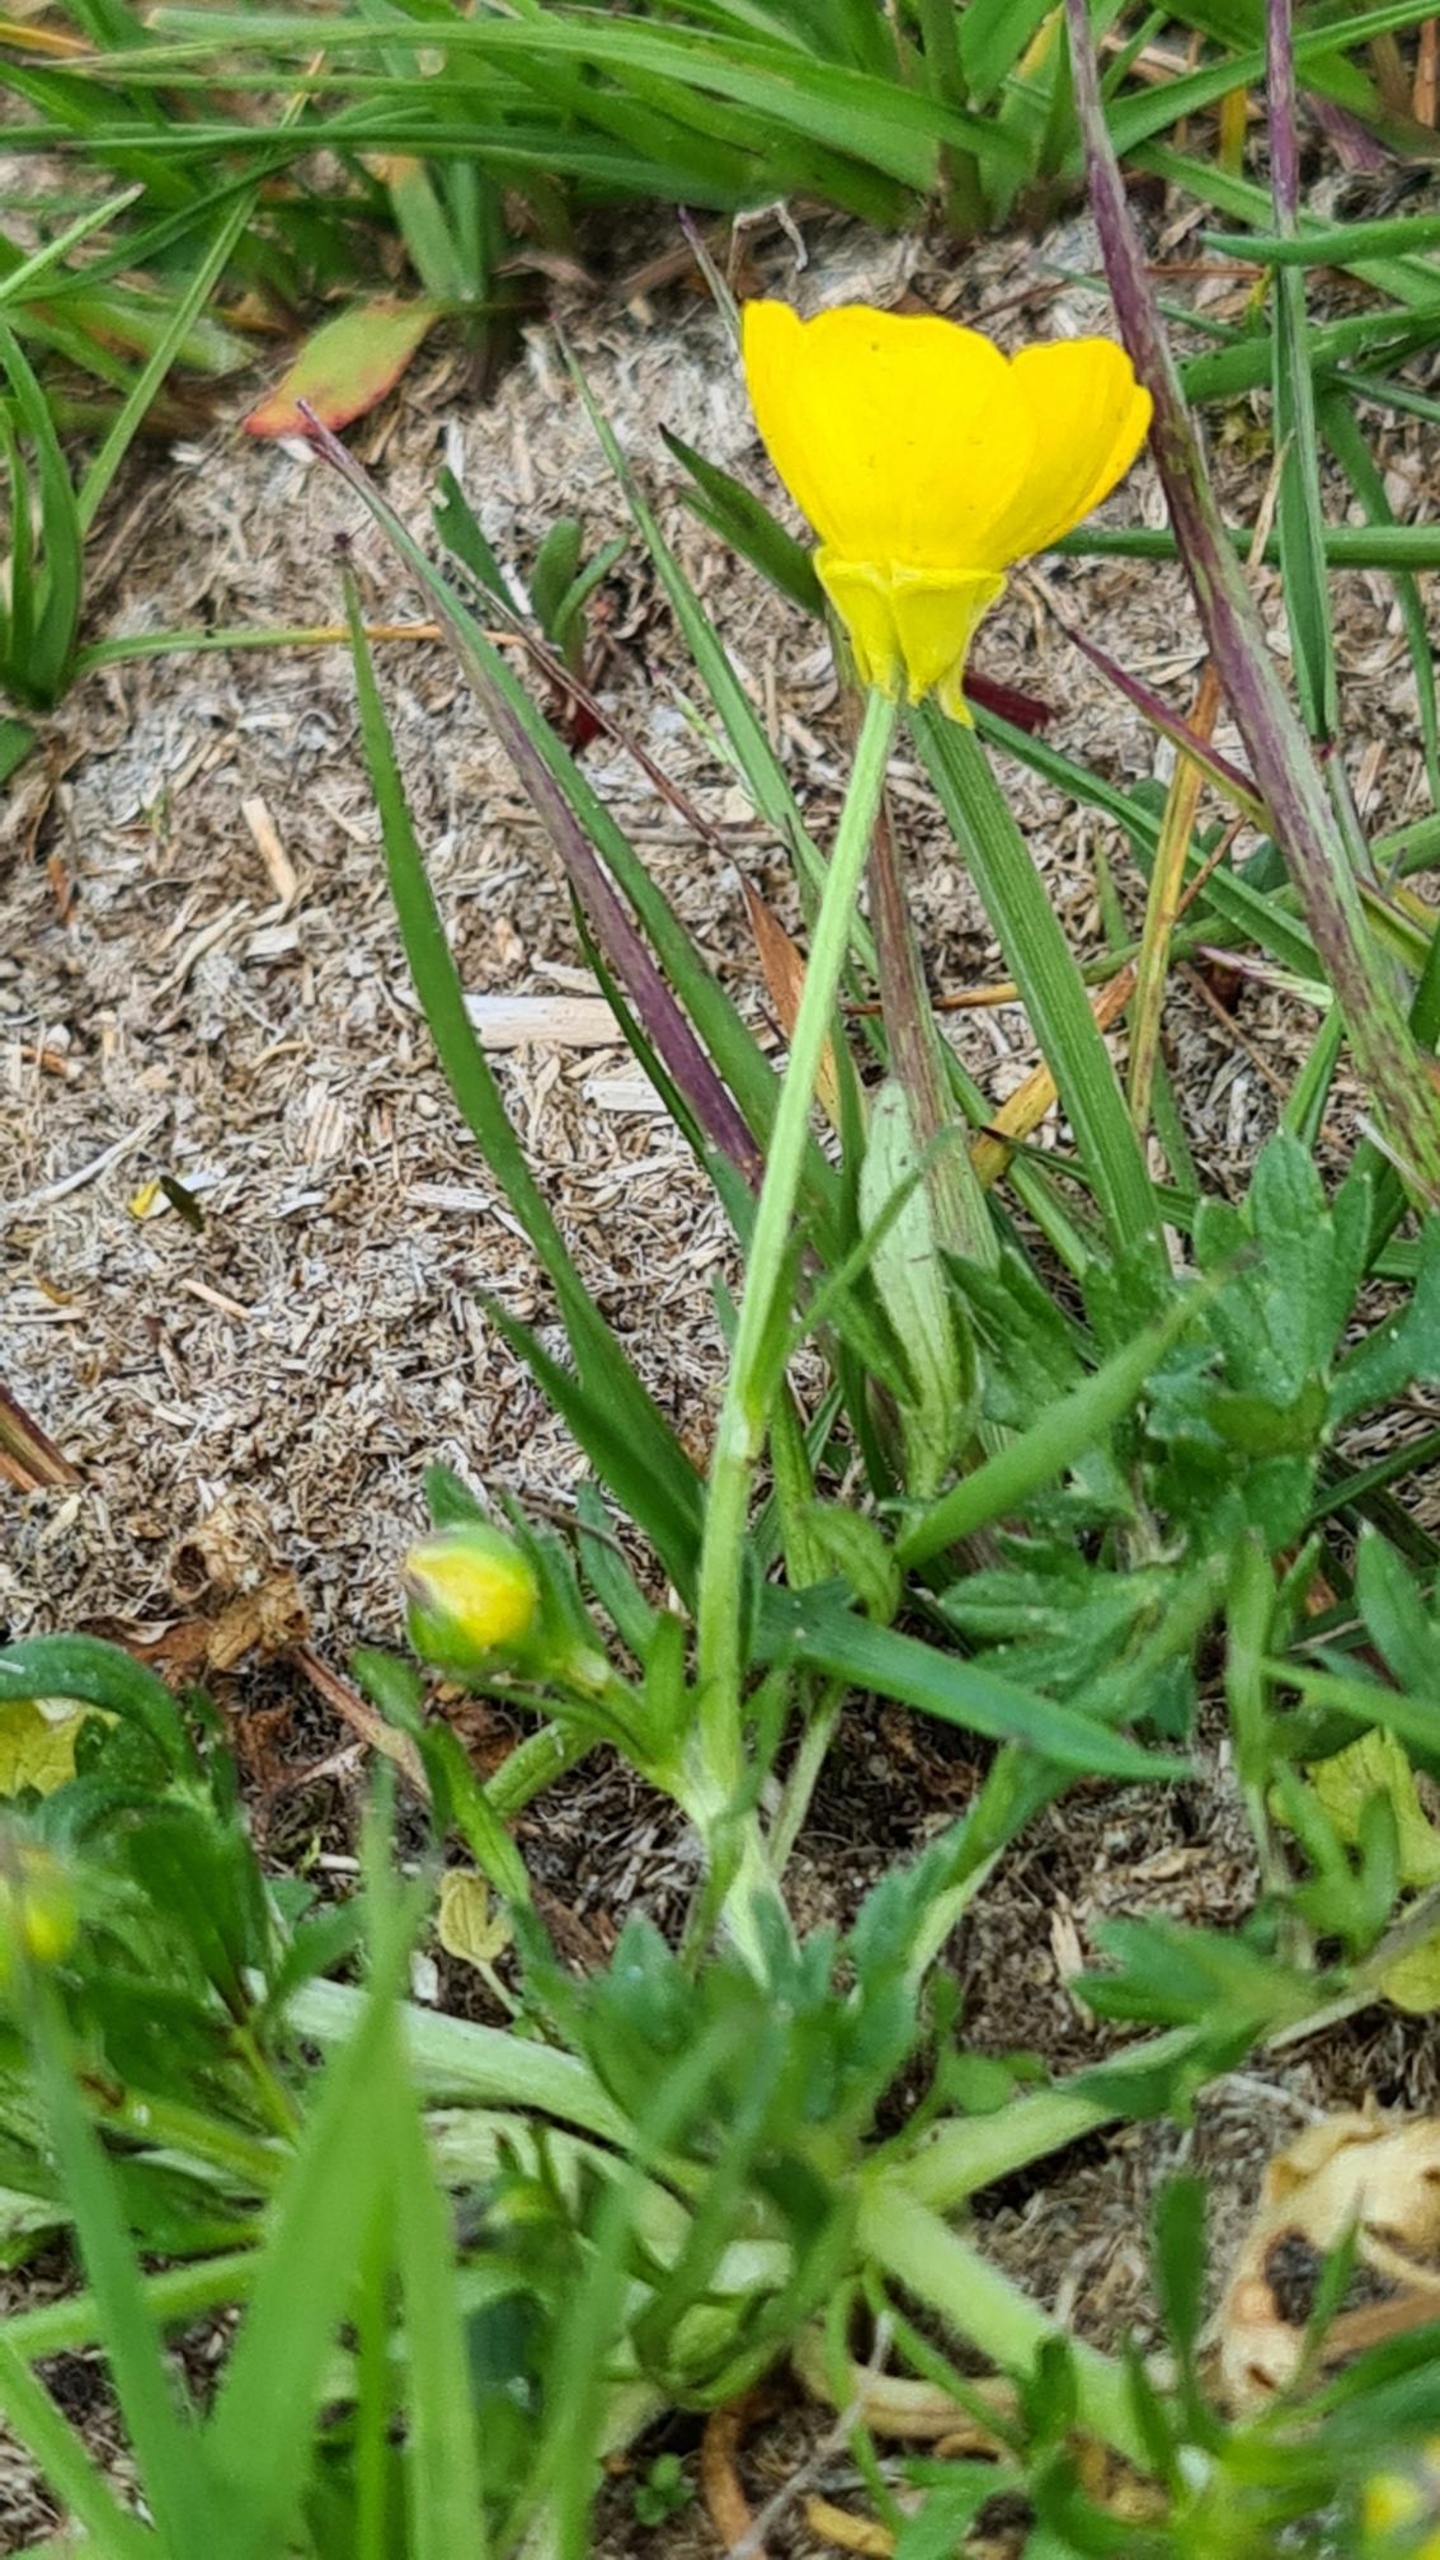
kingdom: Plantae
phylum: Tracheophyta
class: Magnoliopsida
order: Ranunculales
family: Ranunculaceae
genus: Ranunculus
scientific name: Ranunculus bulbosus
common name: Knold-ranunkel
